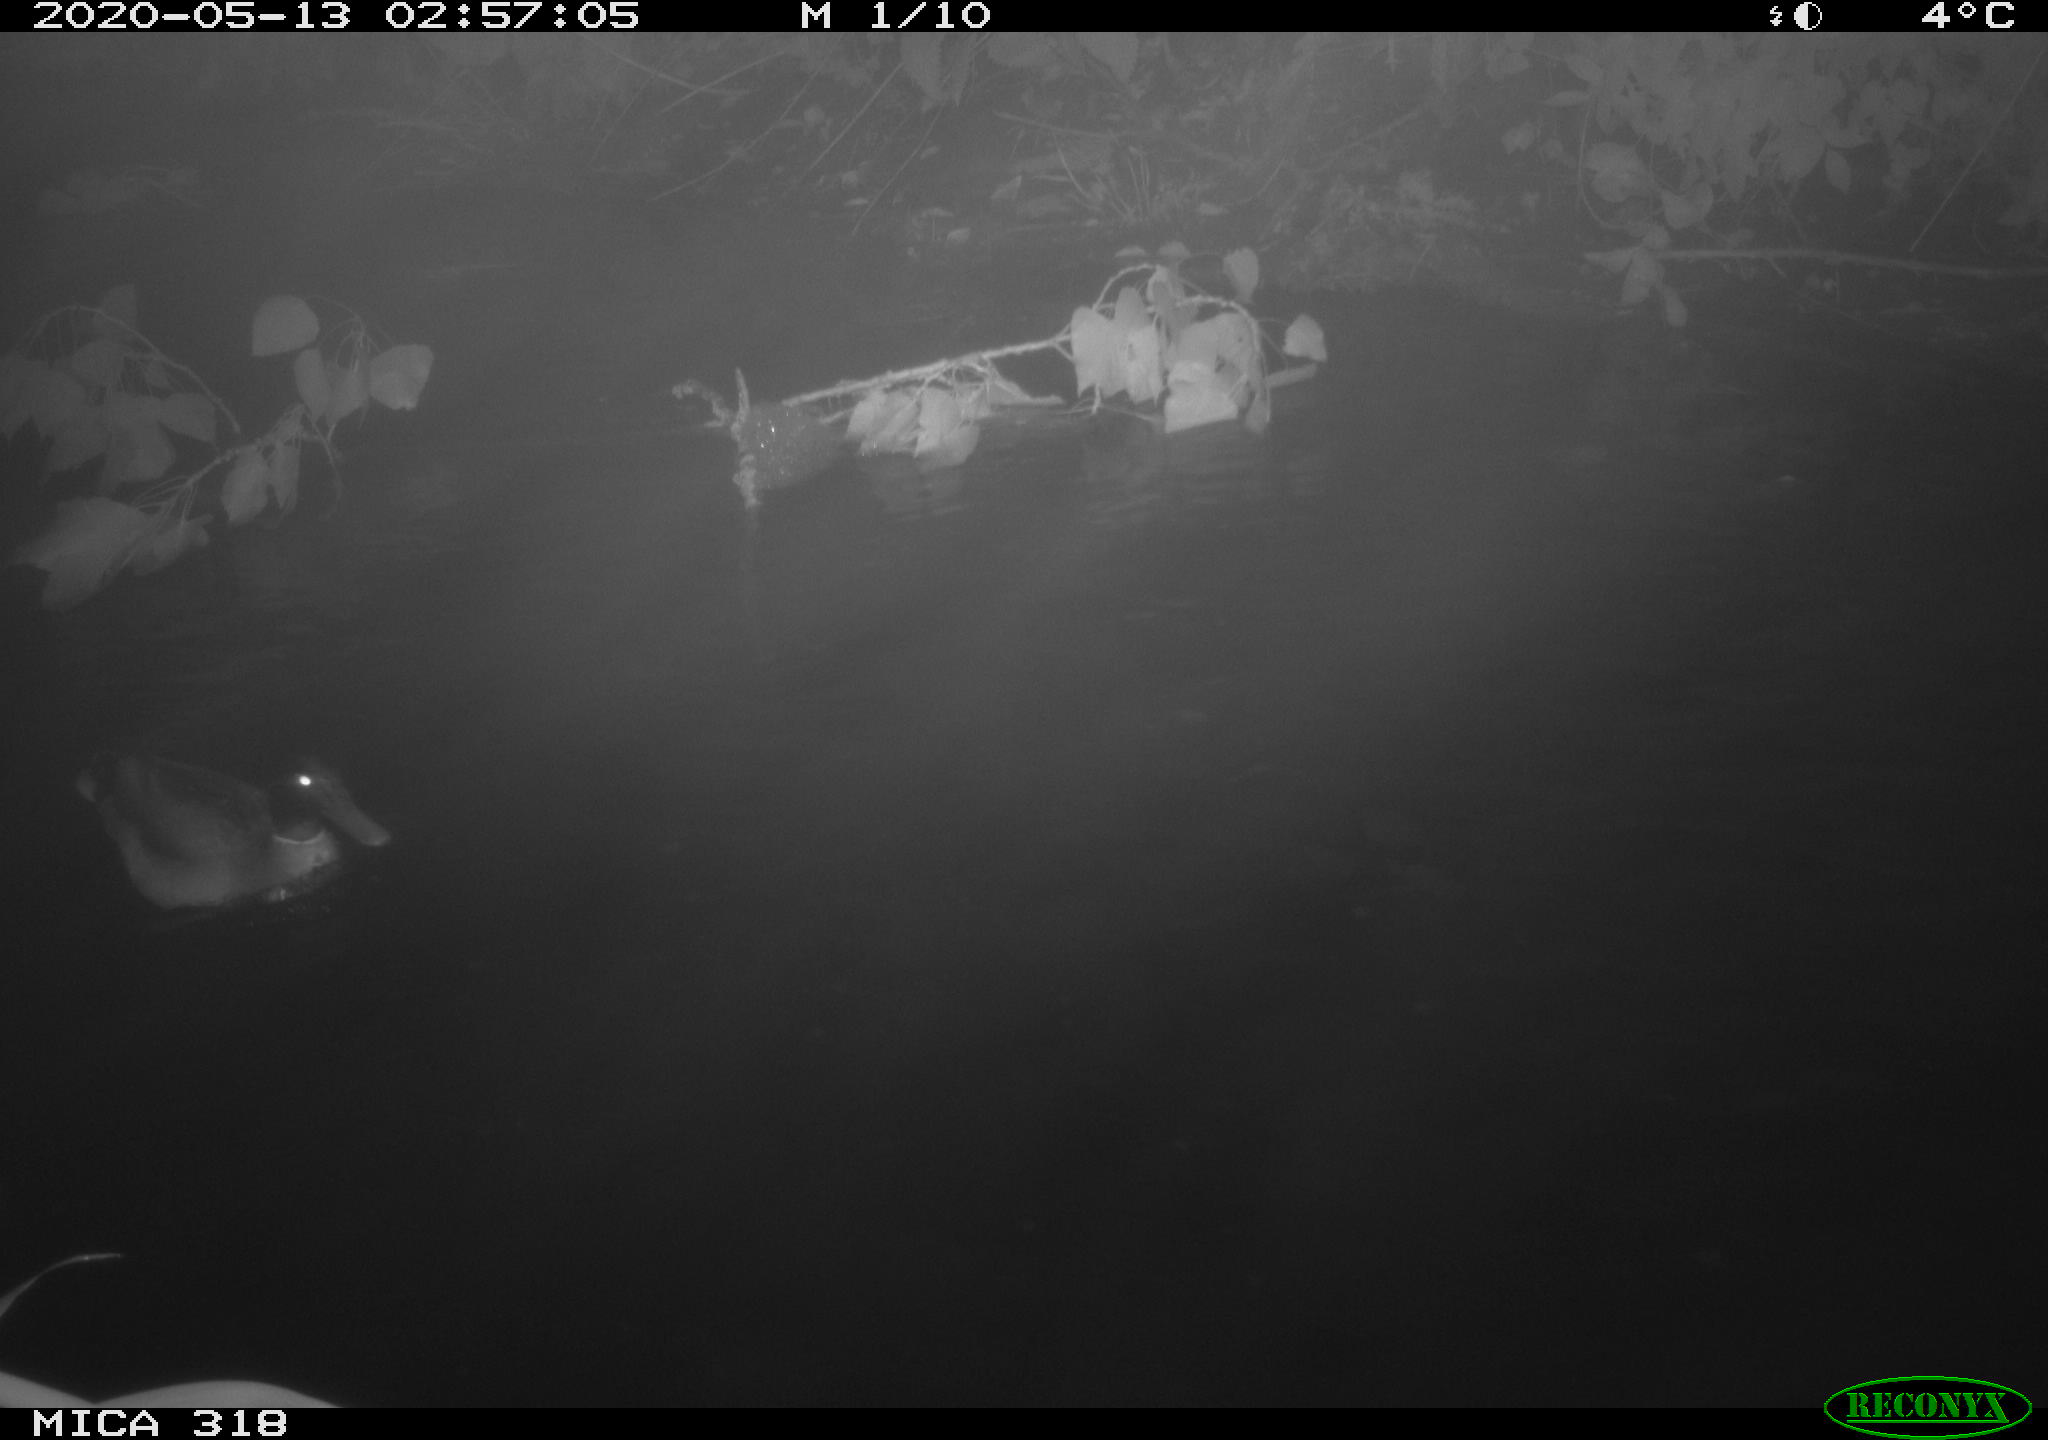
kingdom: Animalia
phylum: Chordata
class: Aves
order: Anseriformes
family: Anatidae
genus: Anas
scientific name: Anas platyrhynchos
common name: Mallard
